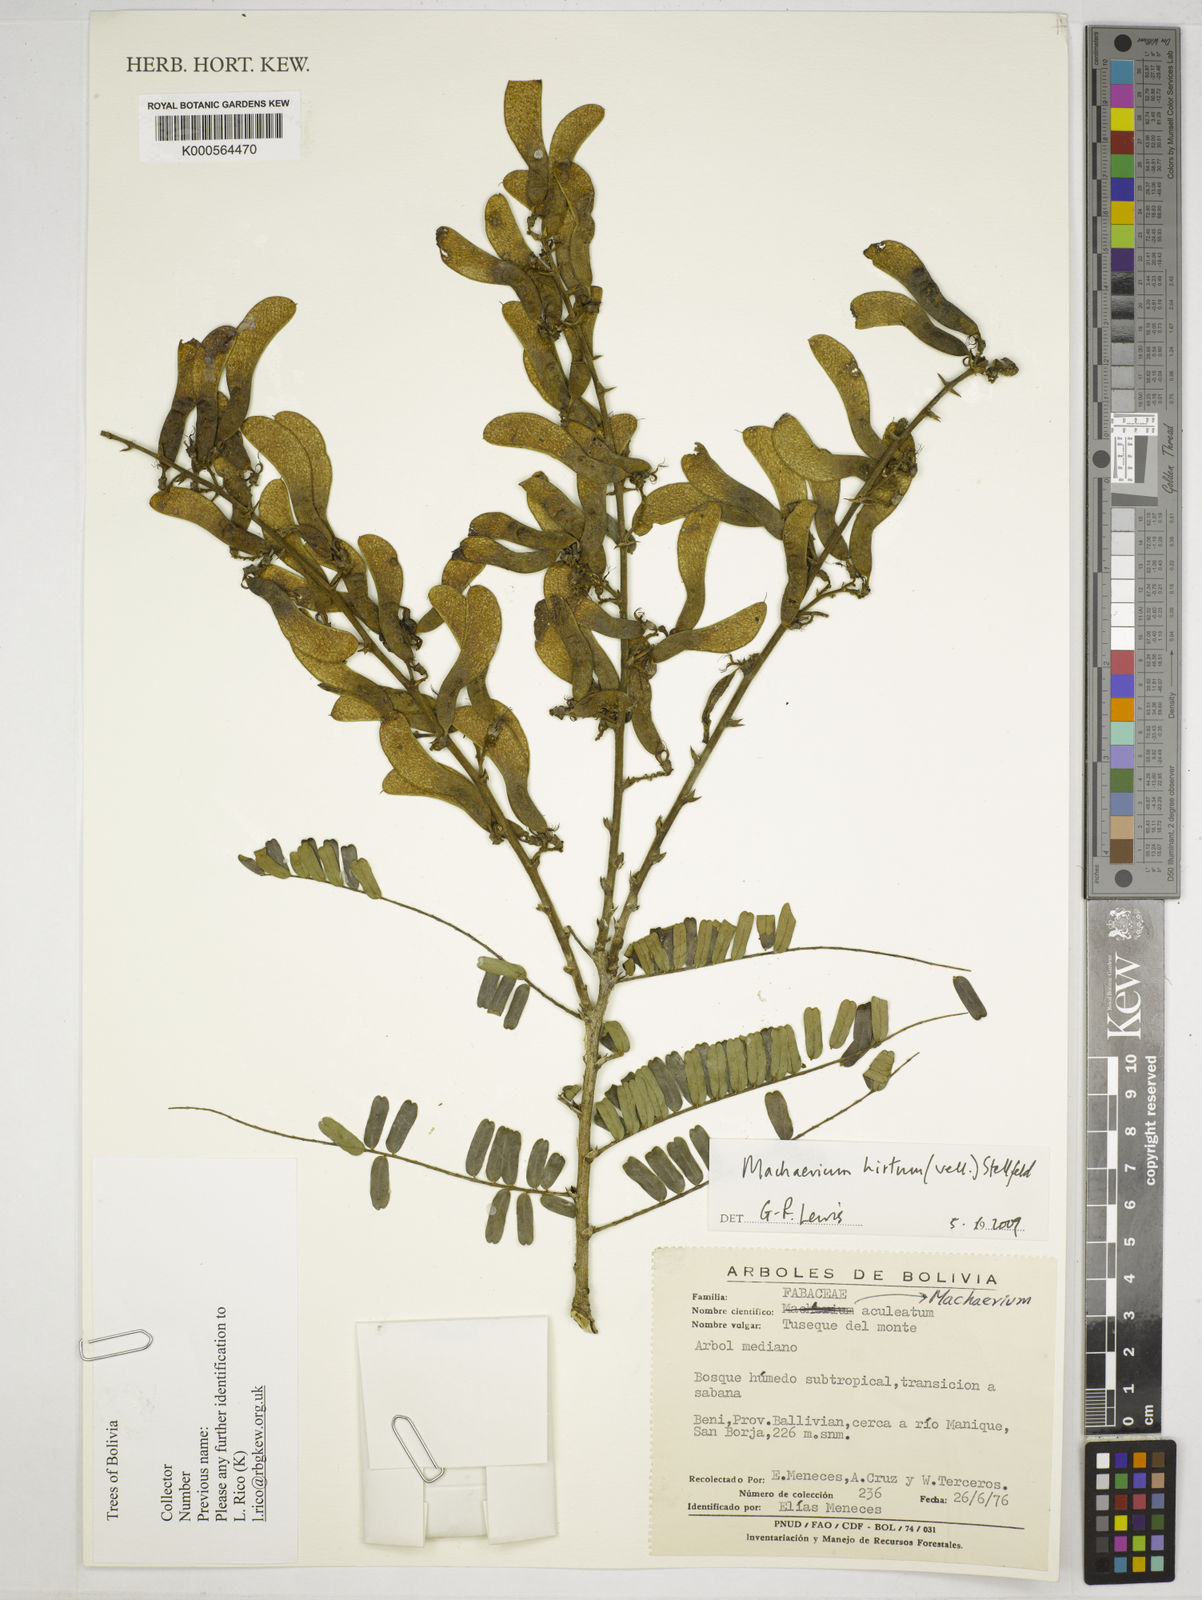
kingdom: Plantae
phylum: Tracheophyta
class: Magnoliopsida
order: Fabales
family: Fabaceae
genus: Machaerium
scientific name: Machaerium hirtum
